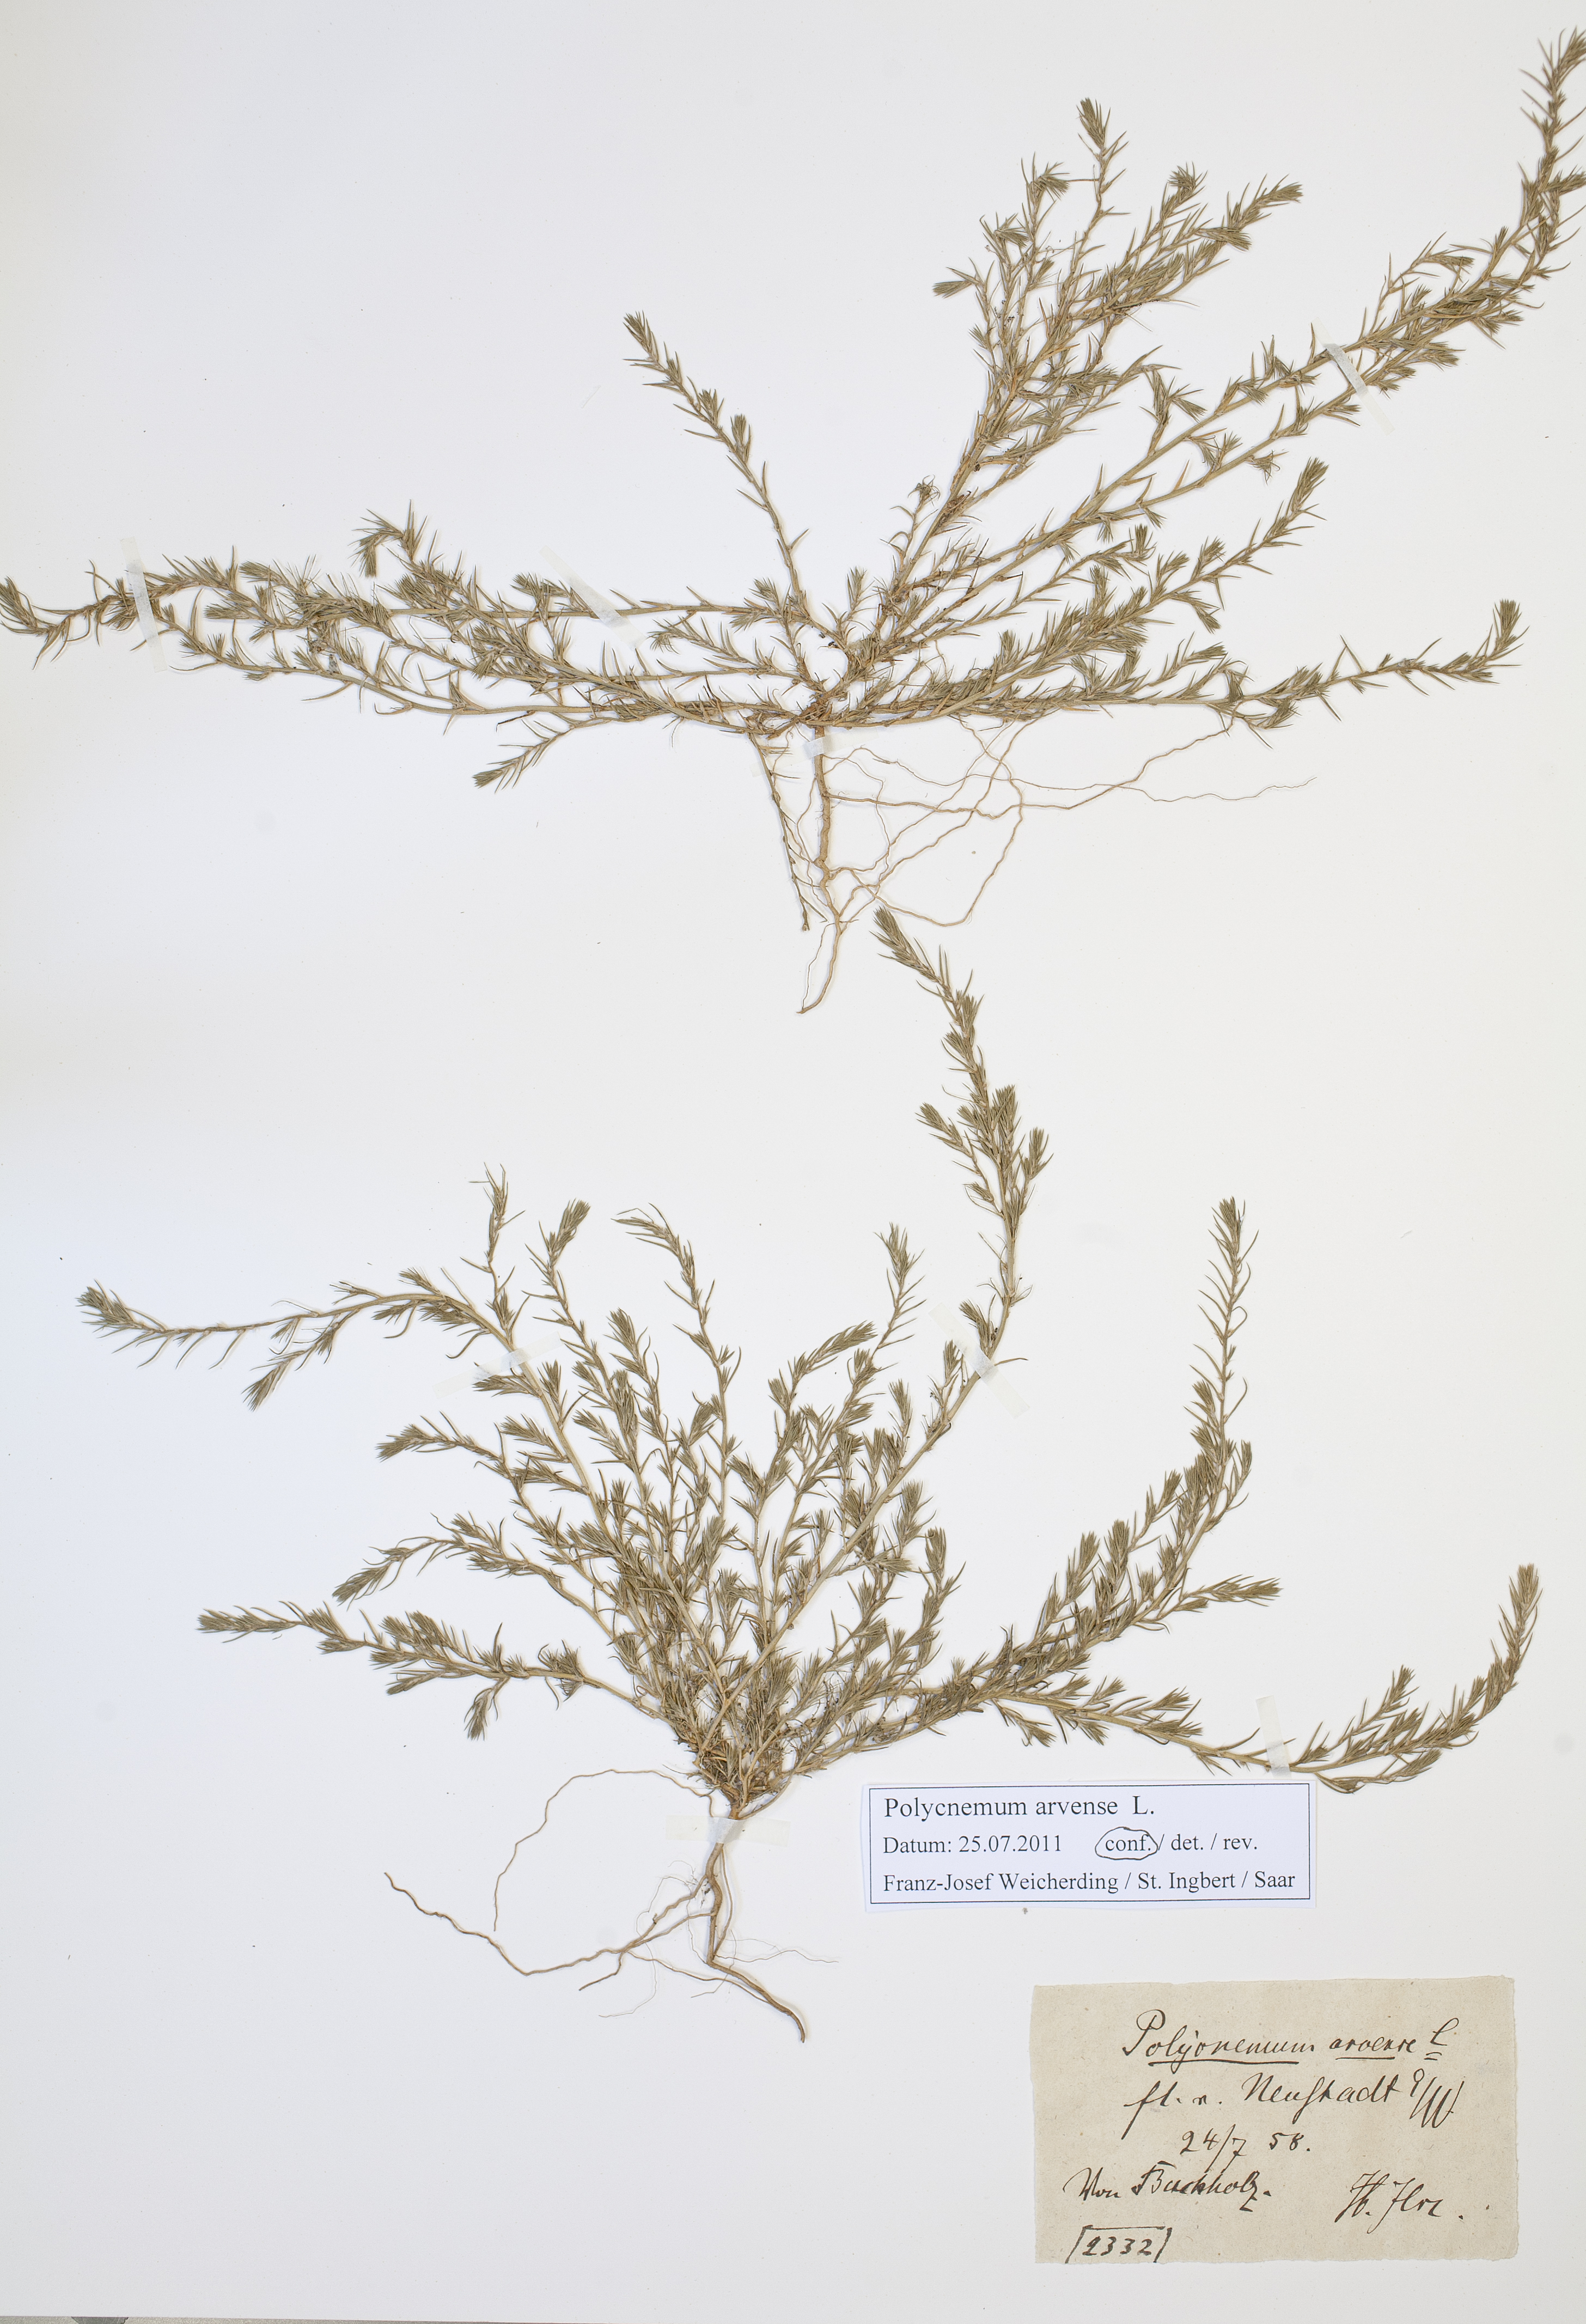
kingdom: Plantae
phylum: Tracheophyta
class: Magnoliopsida
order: Caryophyllales
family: Amaranthaceae
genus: Polycnemum
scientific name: Polycnemum arvense
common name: Soft needleleaf
